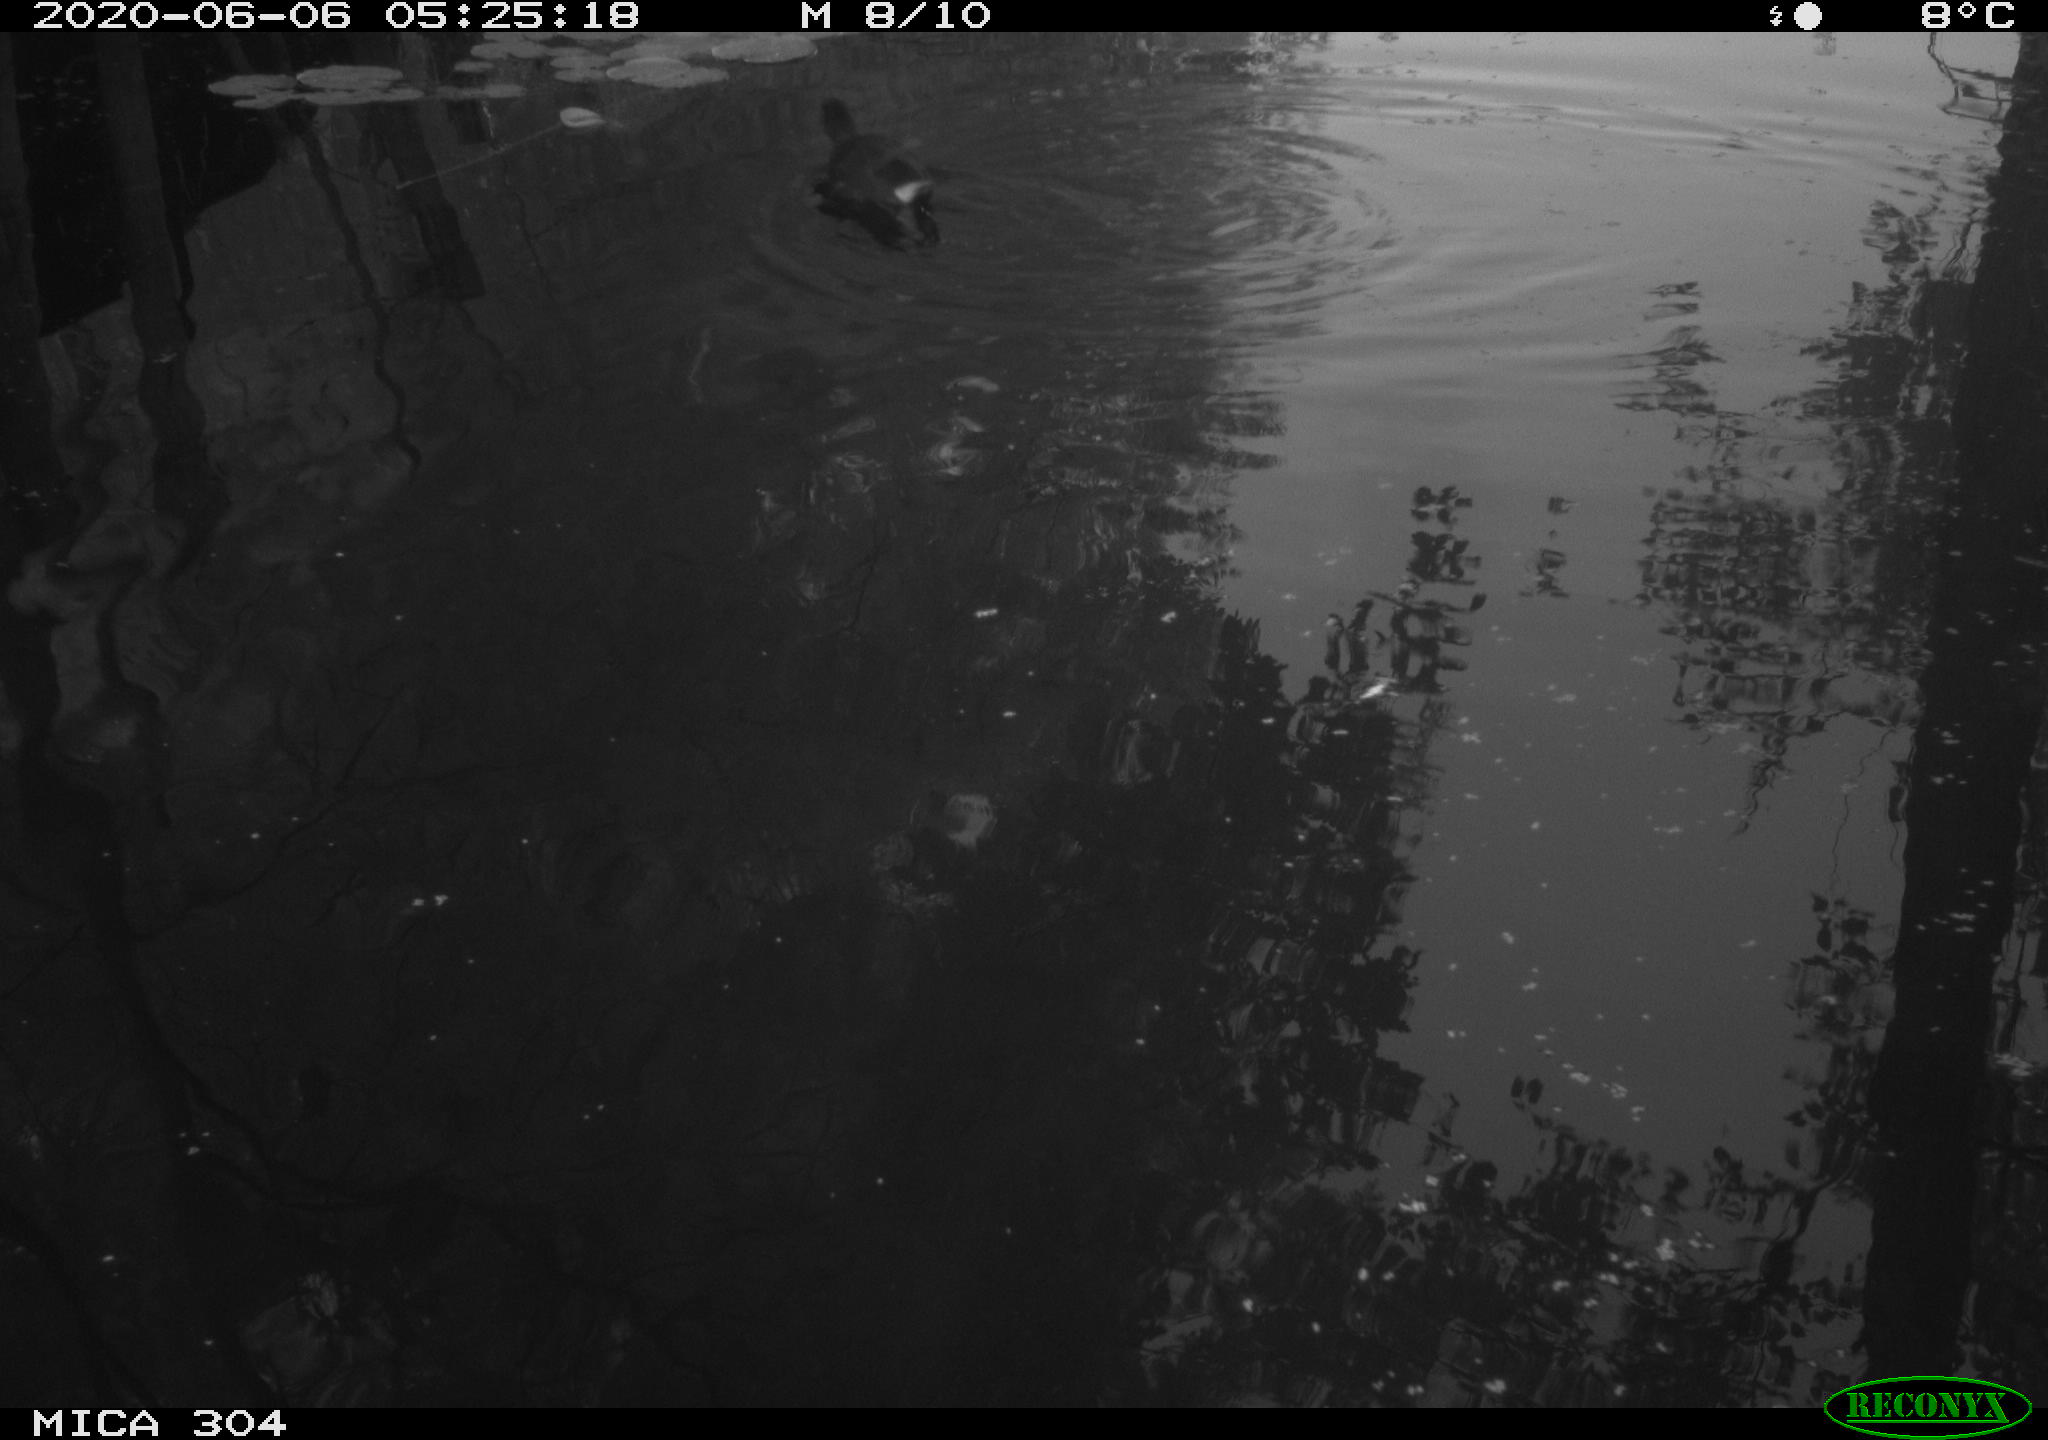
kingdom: Animalia
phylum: Chordata
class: Aves
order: Gruiformes
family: Rallidae
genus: Gallinula
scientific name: Gallinula chloropus
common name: Common moorhen
